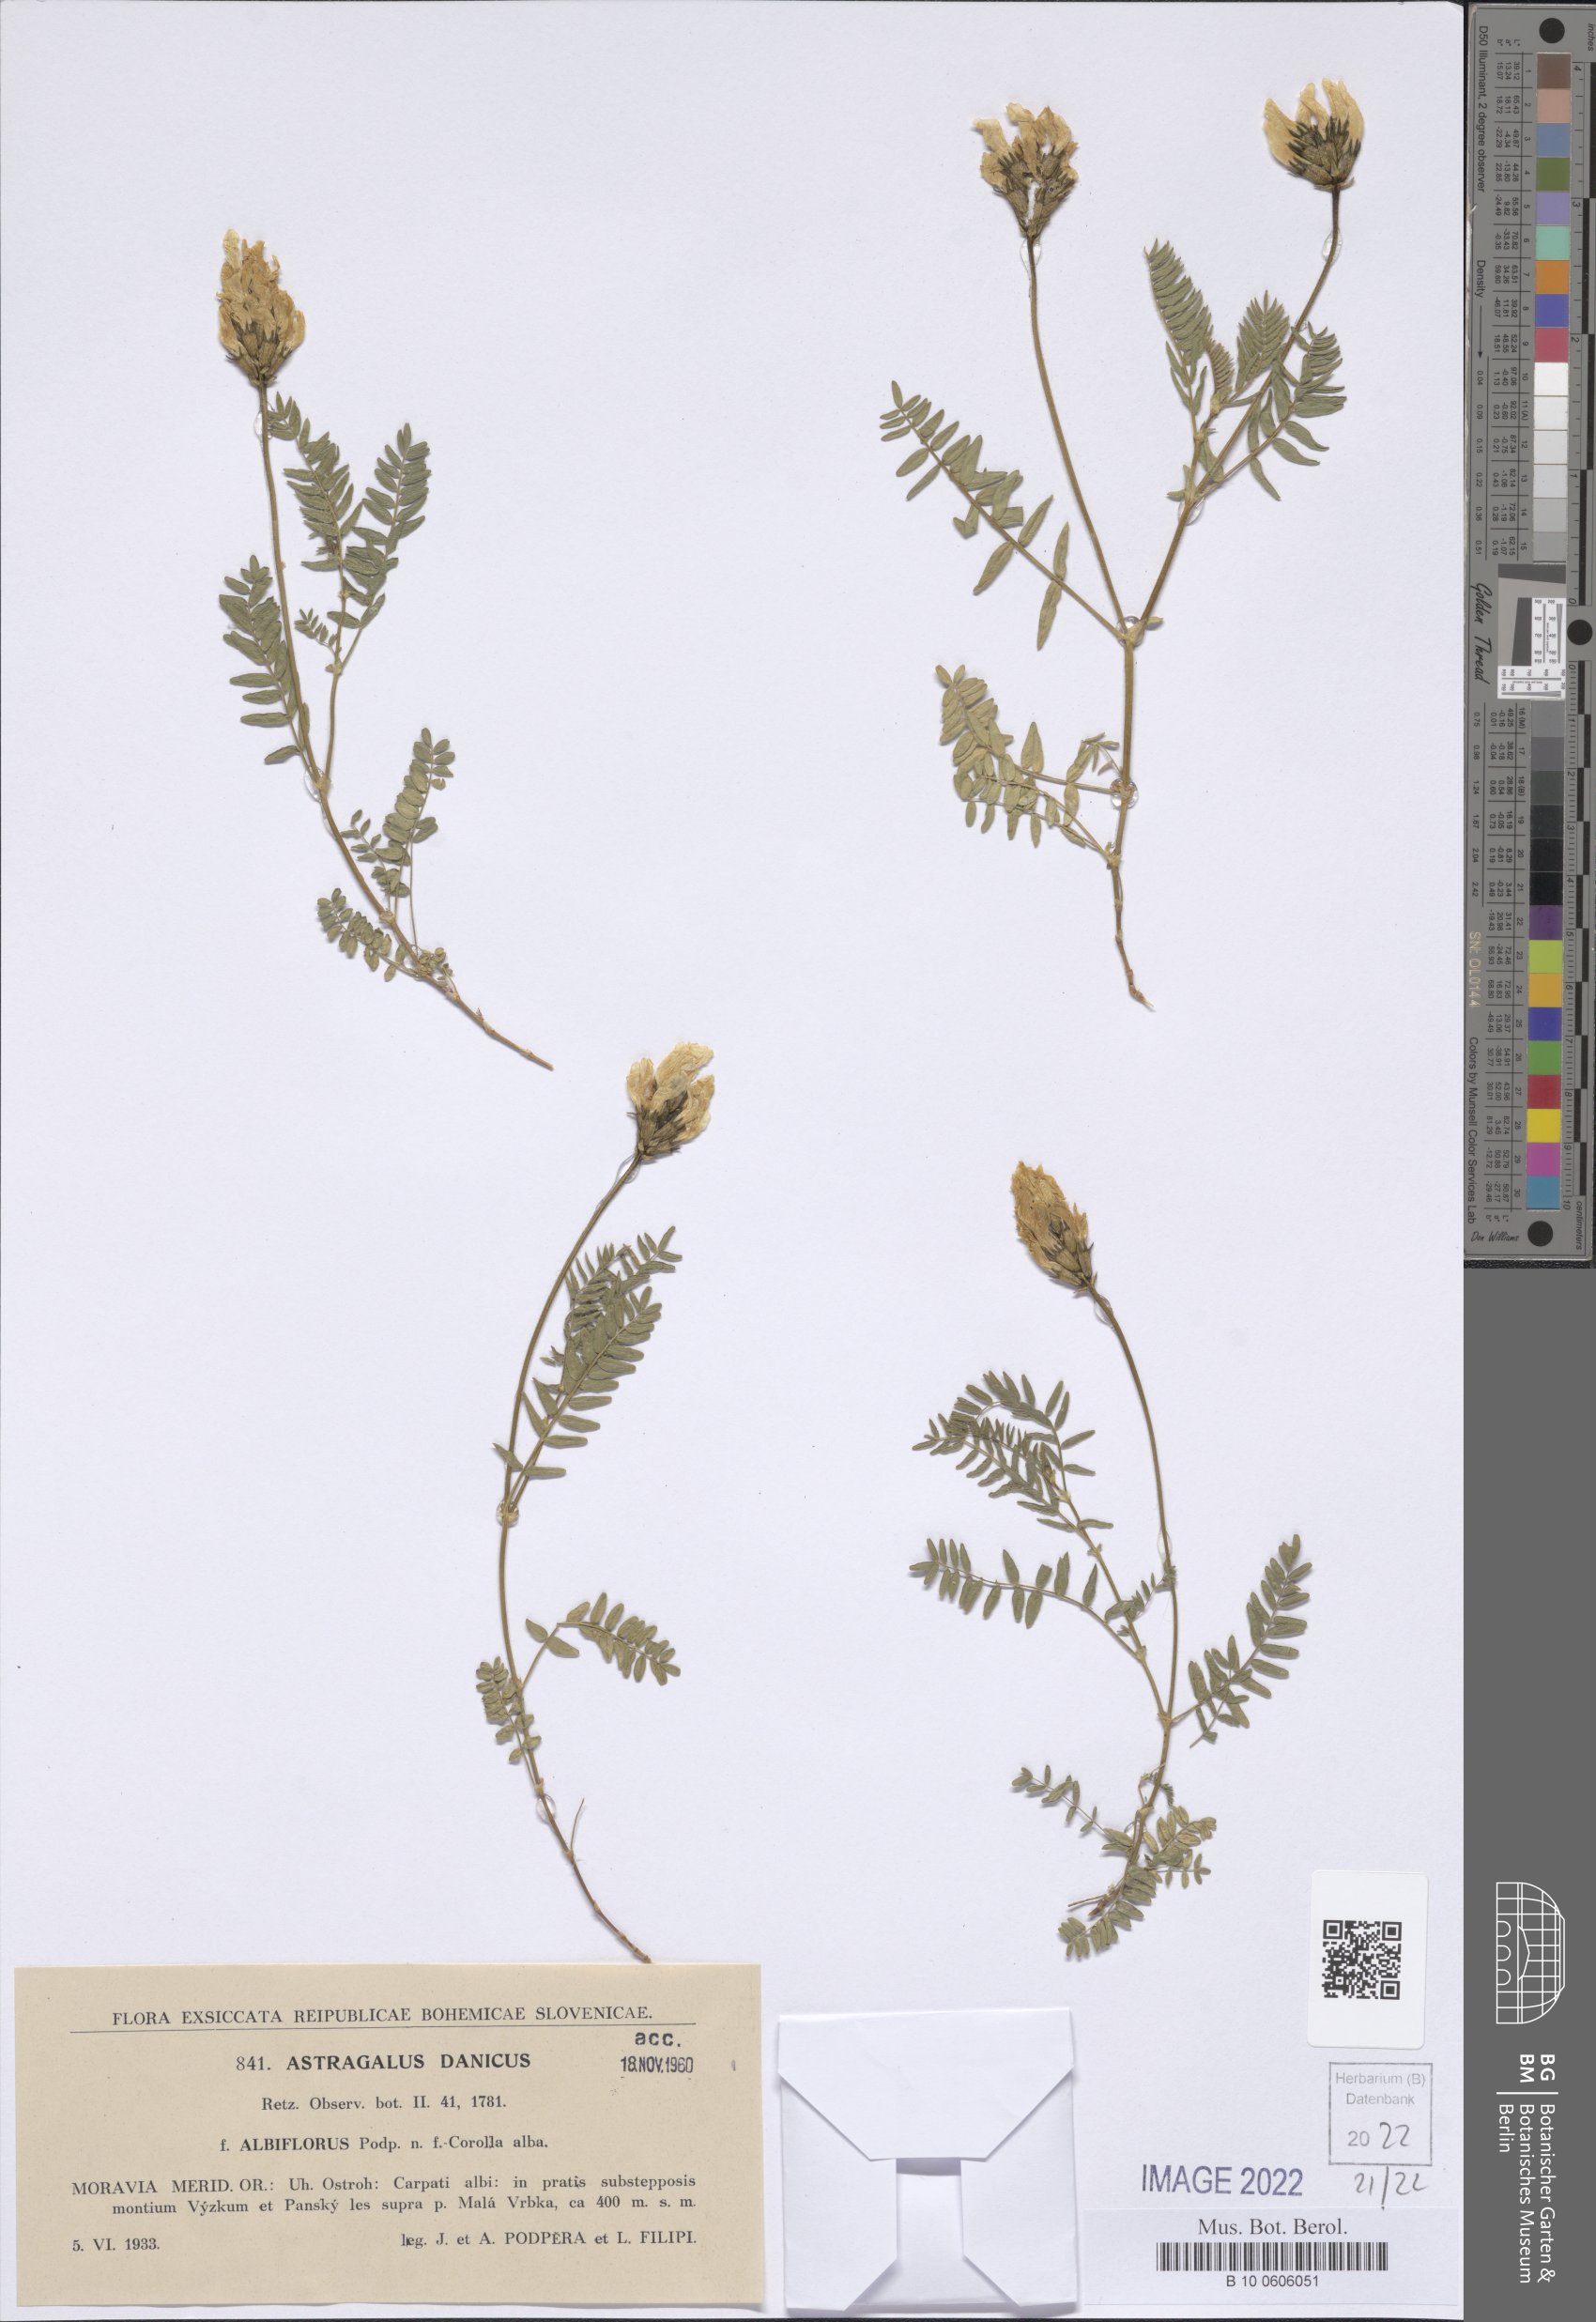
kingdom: Plantae
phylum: Tracheophyta
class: Magnoliopsida
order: Fabales
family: Fabaceae
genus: Astragalus
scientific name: Astragalus danicus
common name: Purple milk-vetch
